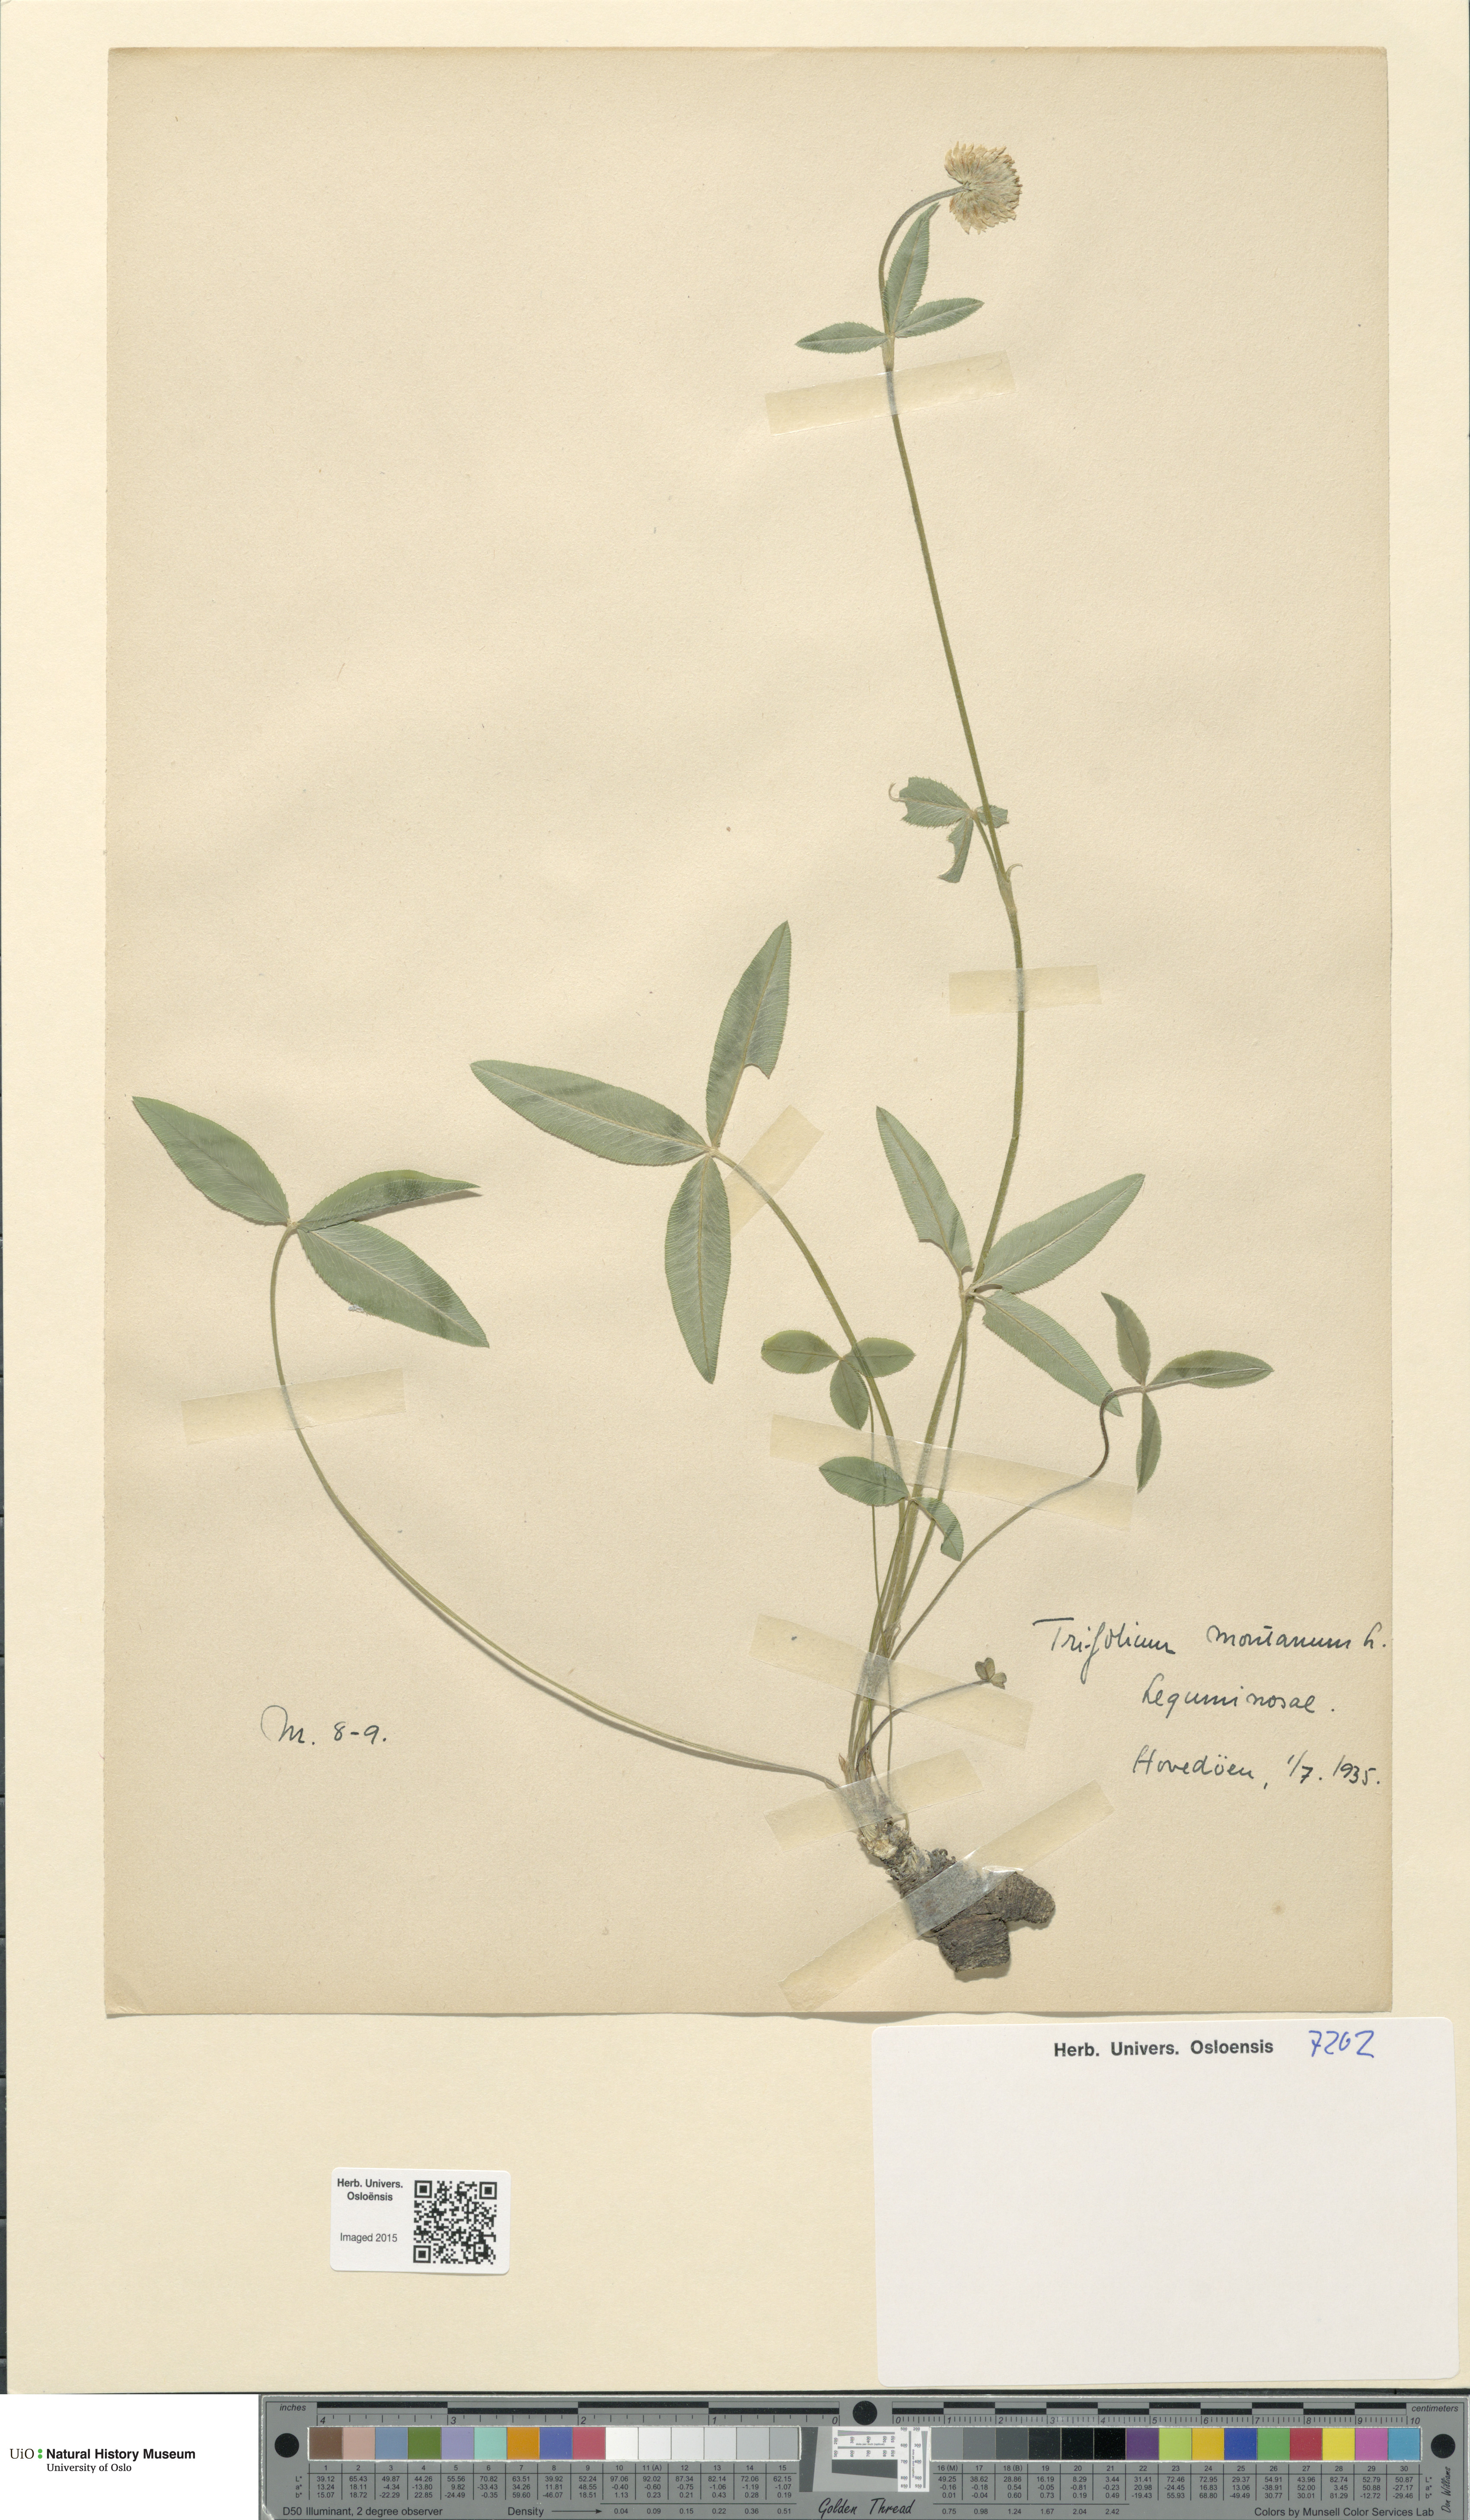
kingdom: Plantae
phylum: Tracheophyta
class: Magnoliopsida
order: Fabales
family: Fabaceae
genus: Trifolium
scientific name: Trifolium montanum
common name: Mountain clover
